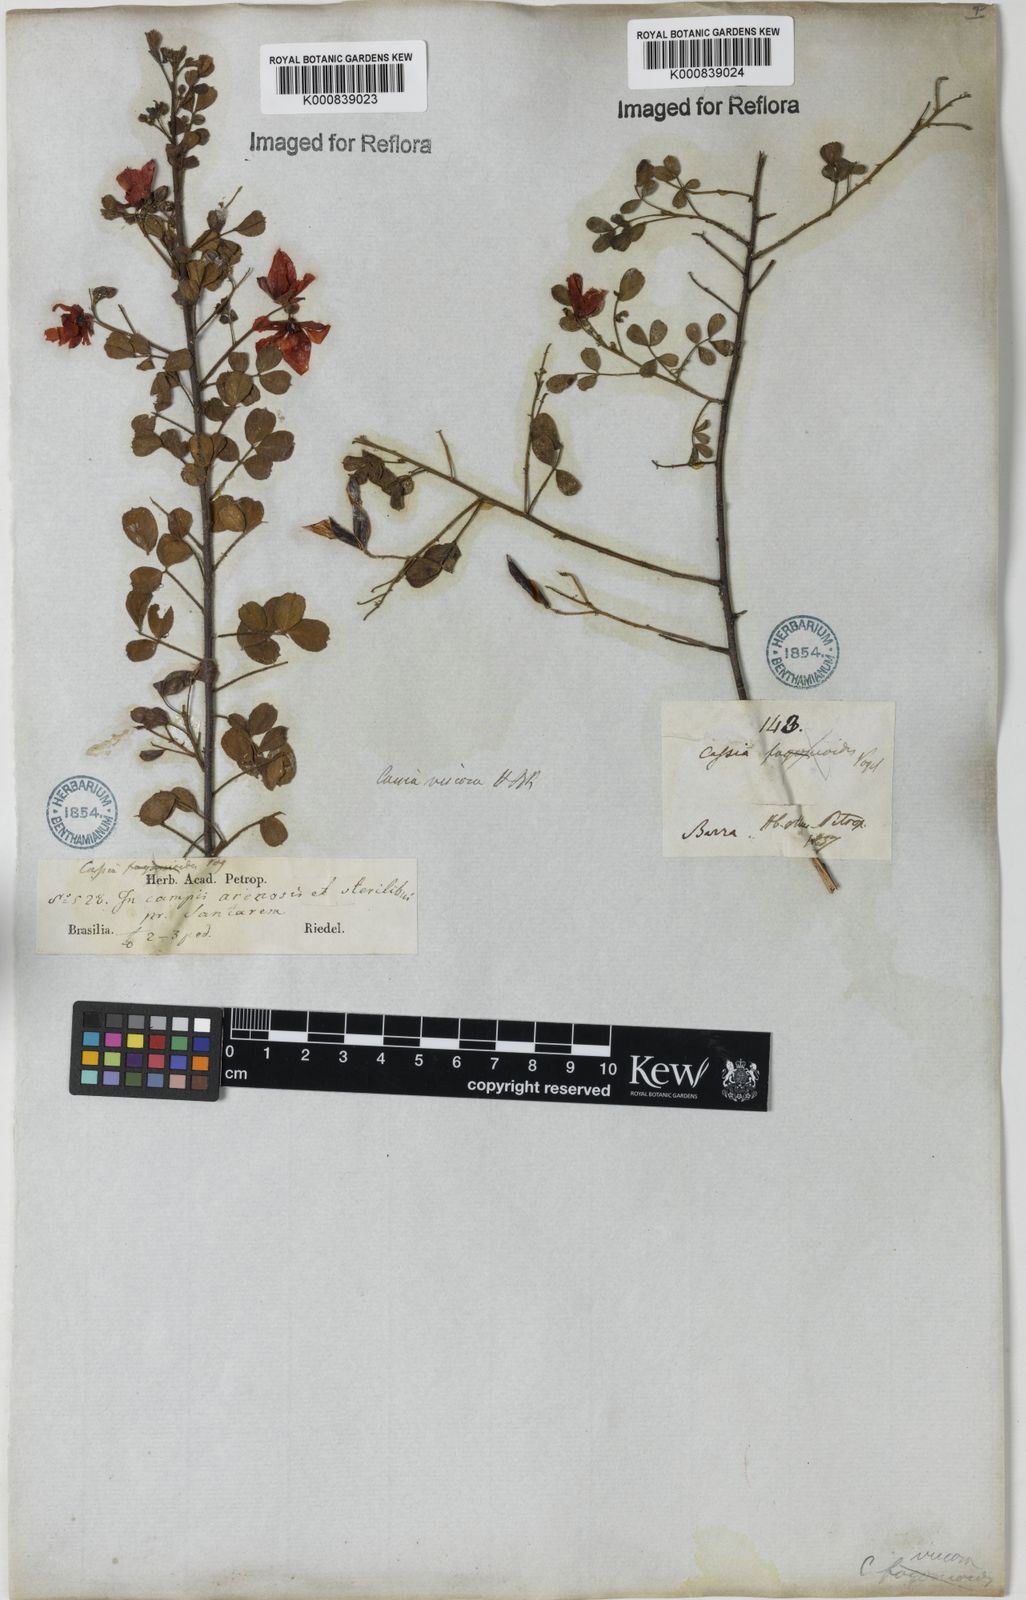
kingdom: Plantae
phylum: Tracheophyta
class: Magnoliopsida
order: Fabales
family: Fabaceae
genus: Chamaecrista
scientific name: Chamaecrista viscosa
